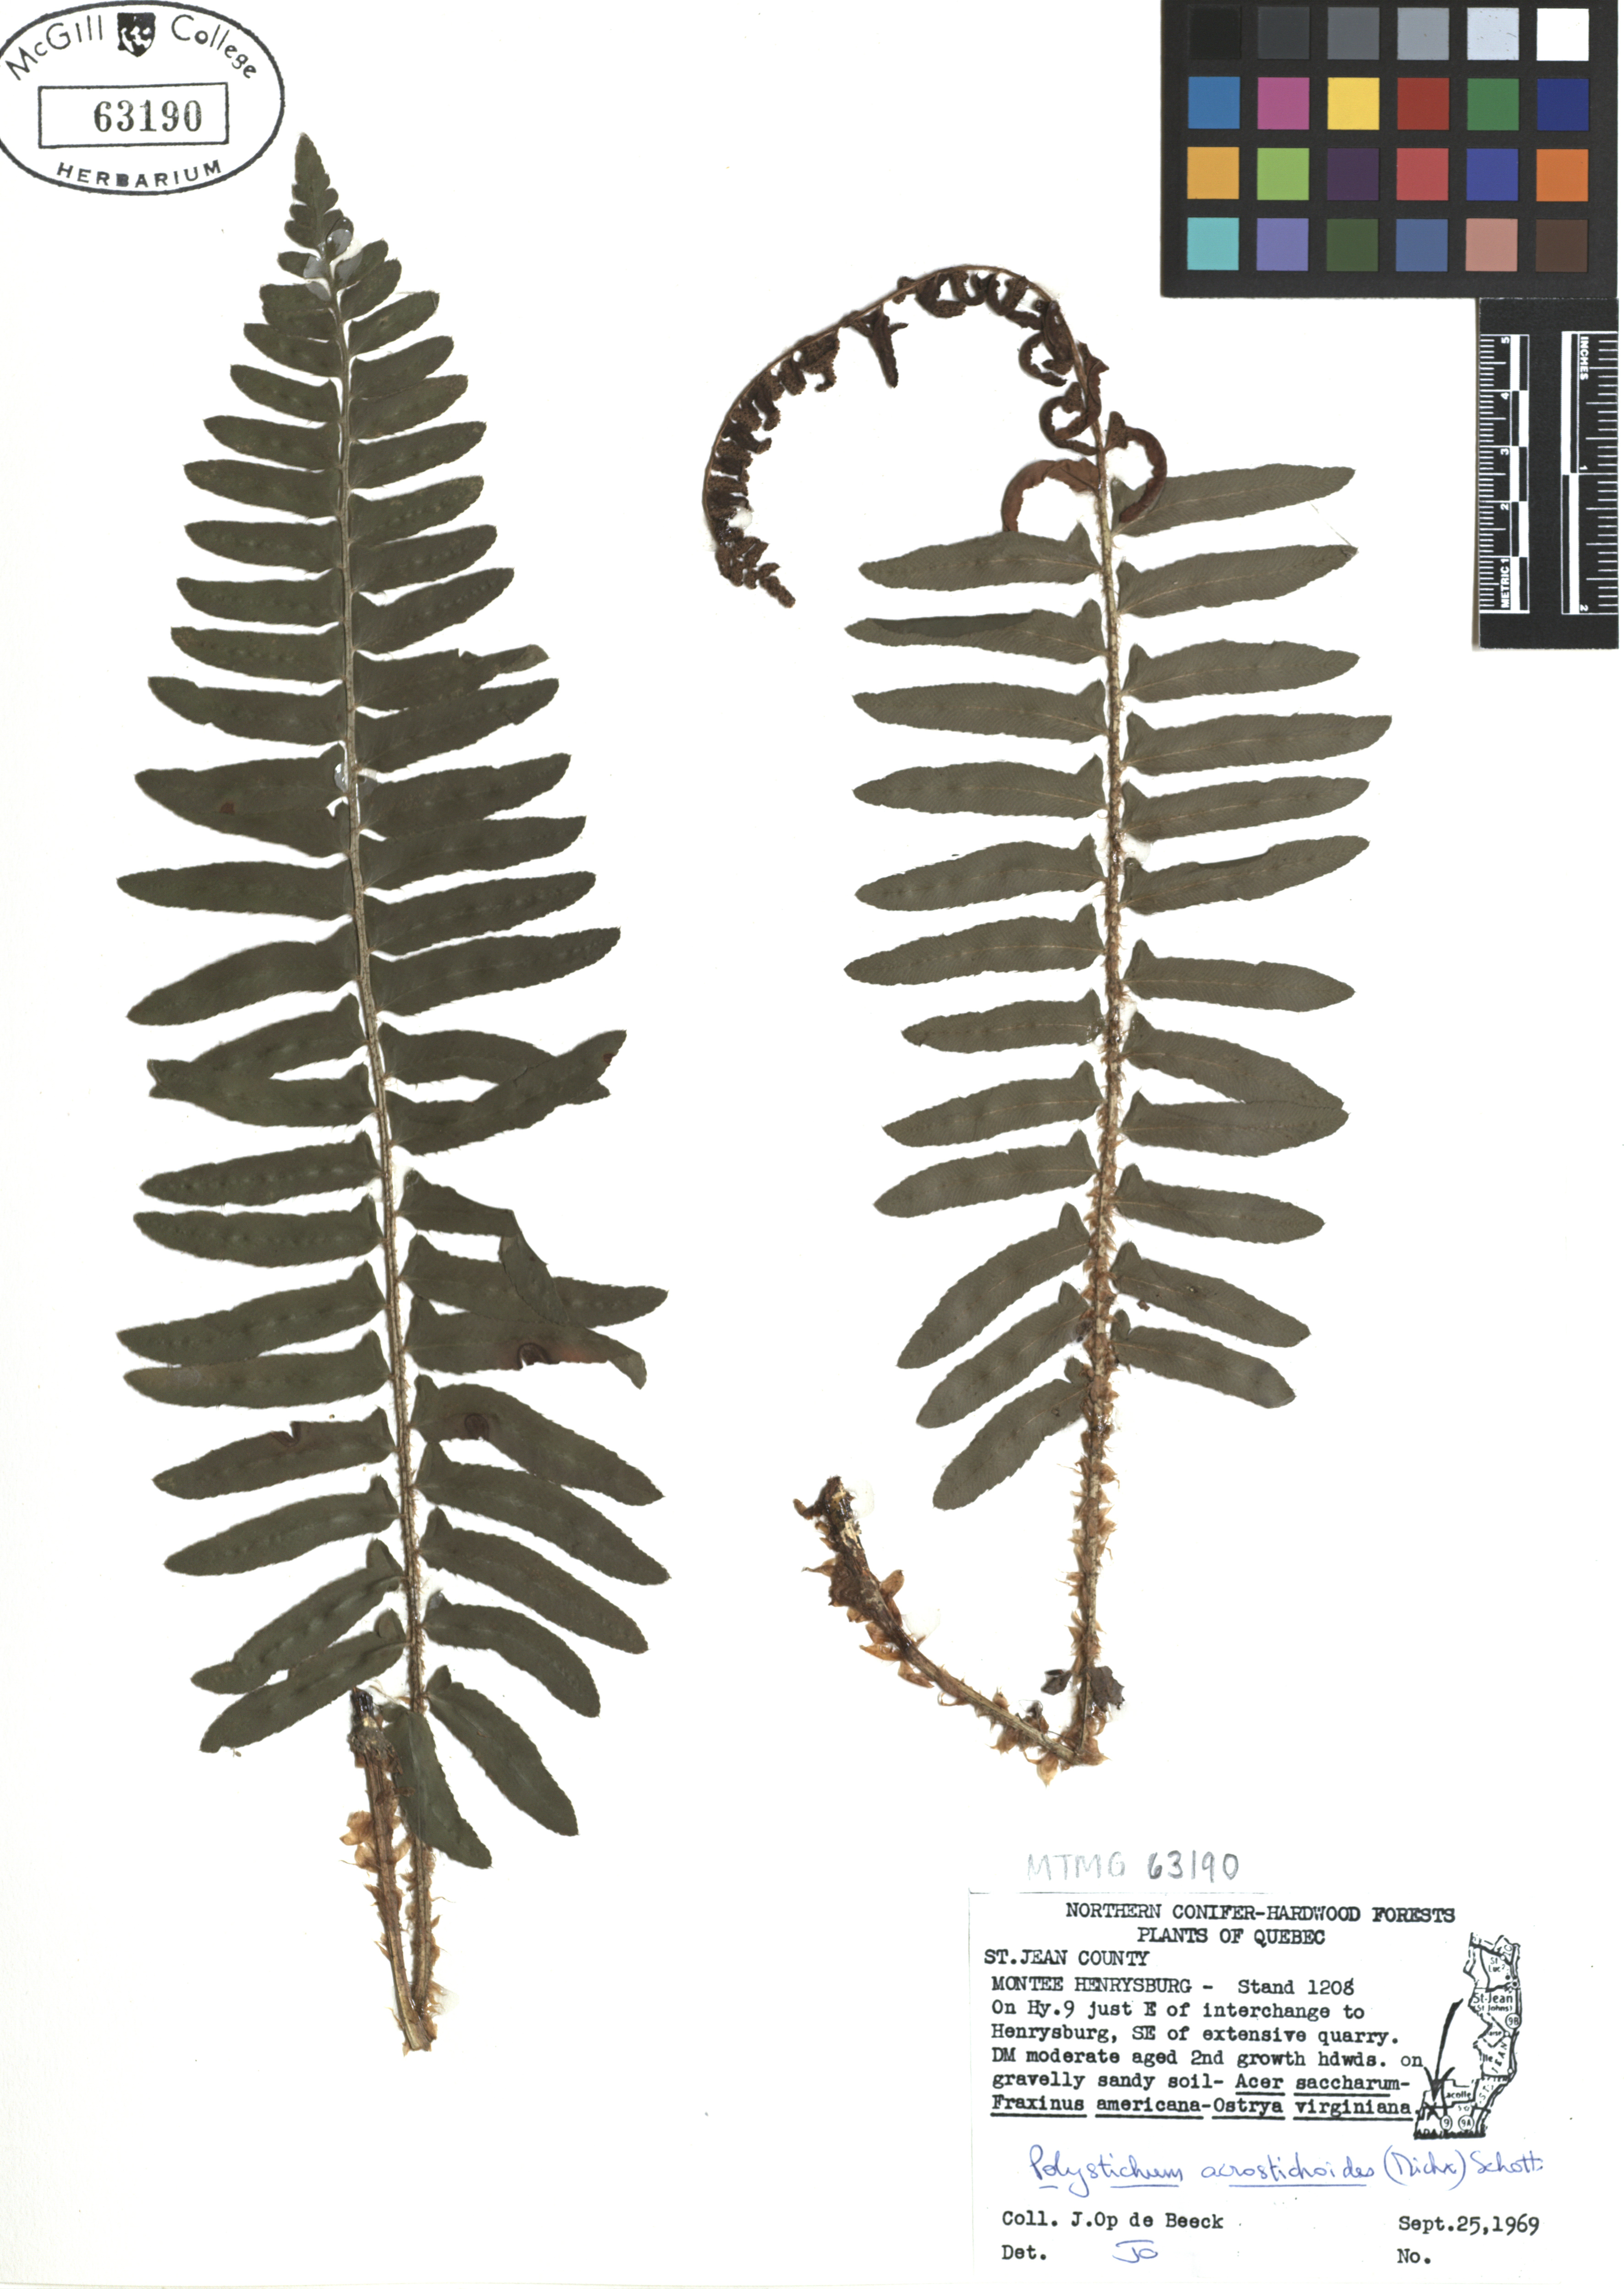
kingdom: Plantae
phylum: Tracheophyta
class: Polypodiopsida
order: Polypodiales
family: Dryopteridaceae
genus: Polystichum
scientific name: Polystichum acrostichoides
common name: Christmas fern
